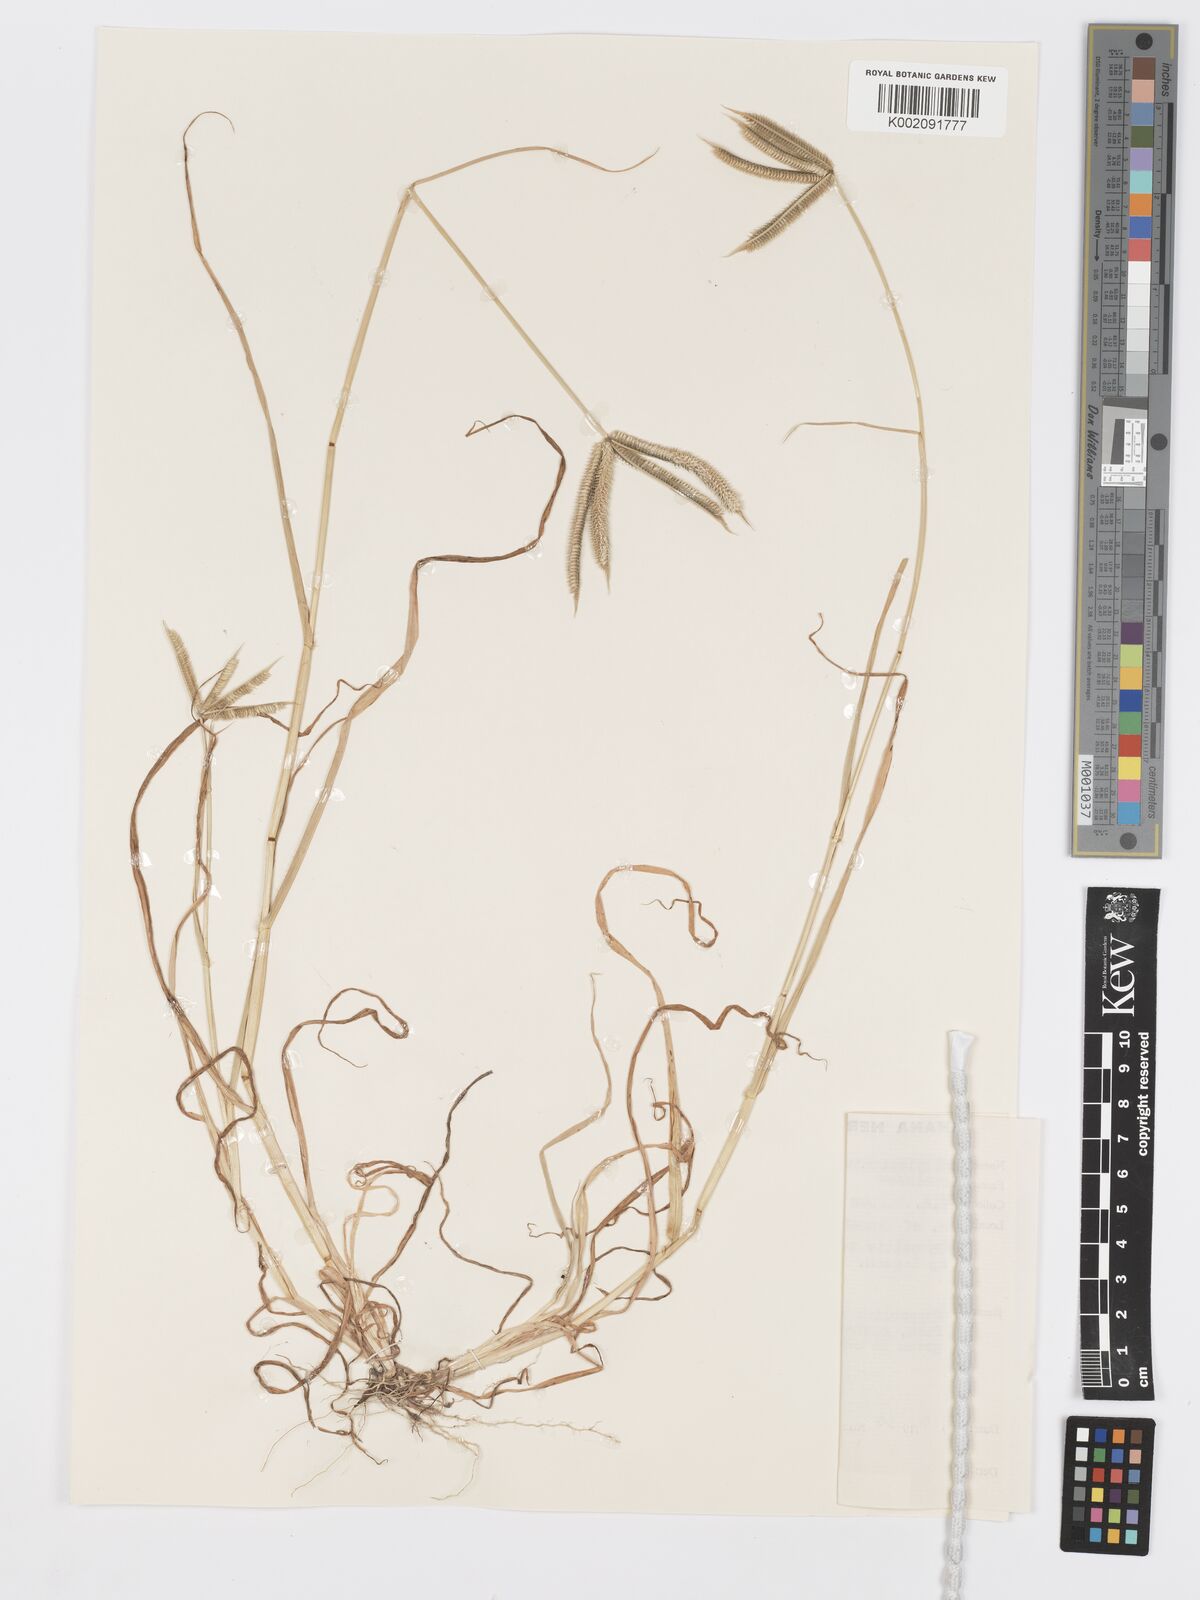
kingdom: Plantae
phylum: Tracheophyta
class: Liliopsida
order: Poales
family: Poaceae
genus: Dactyloctenium
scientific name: Dactyloctenium aegyptium
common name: Egyptian grass
